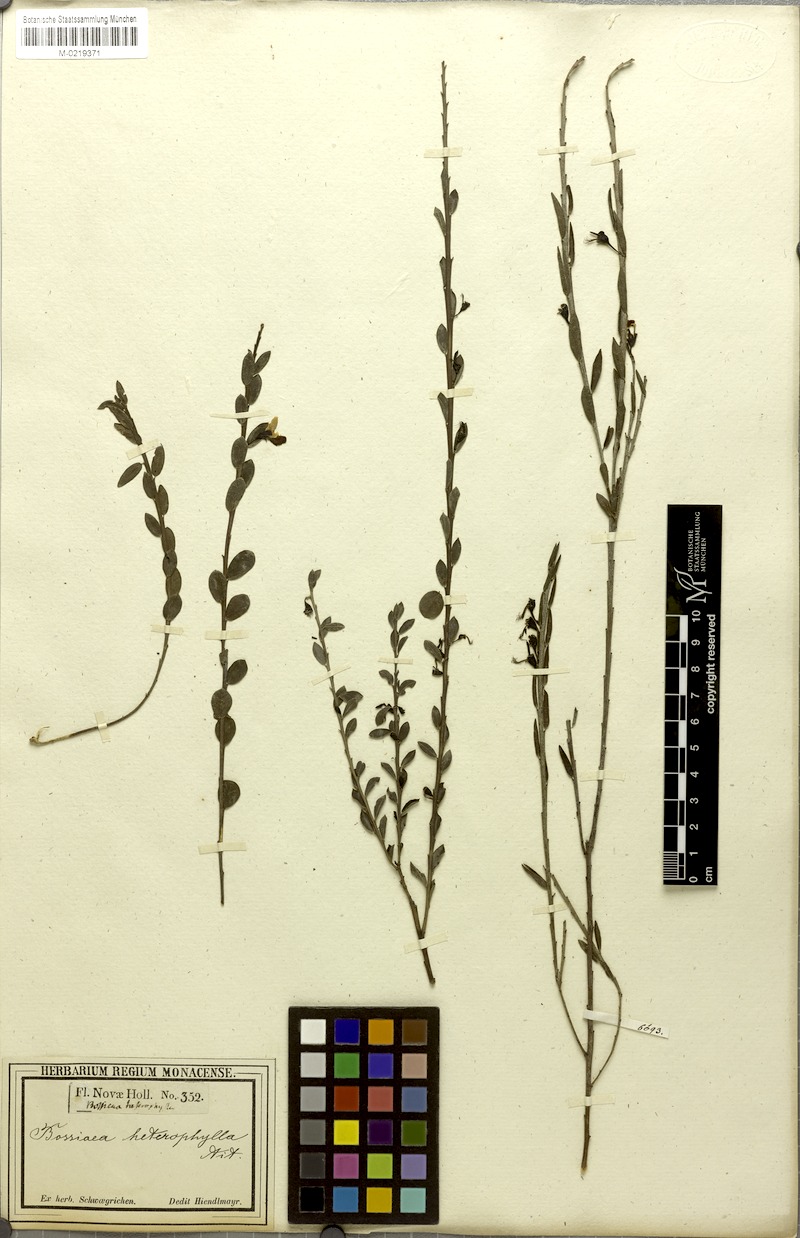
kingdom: Plantae
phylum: Tracheophyta
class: Magnoliopsida
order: Fabales
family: Fabaceae
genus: Bossiaea
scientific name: Bossiaea heterophylla
